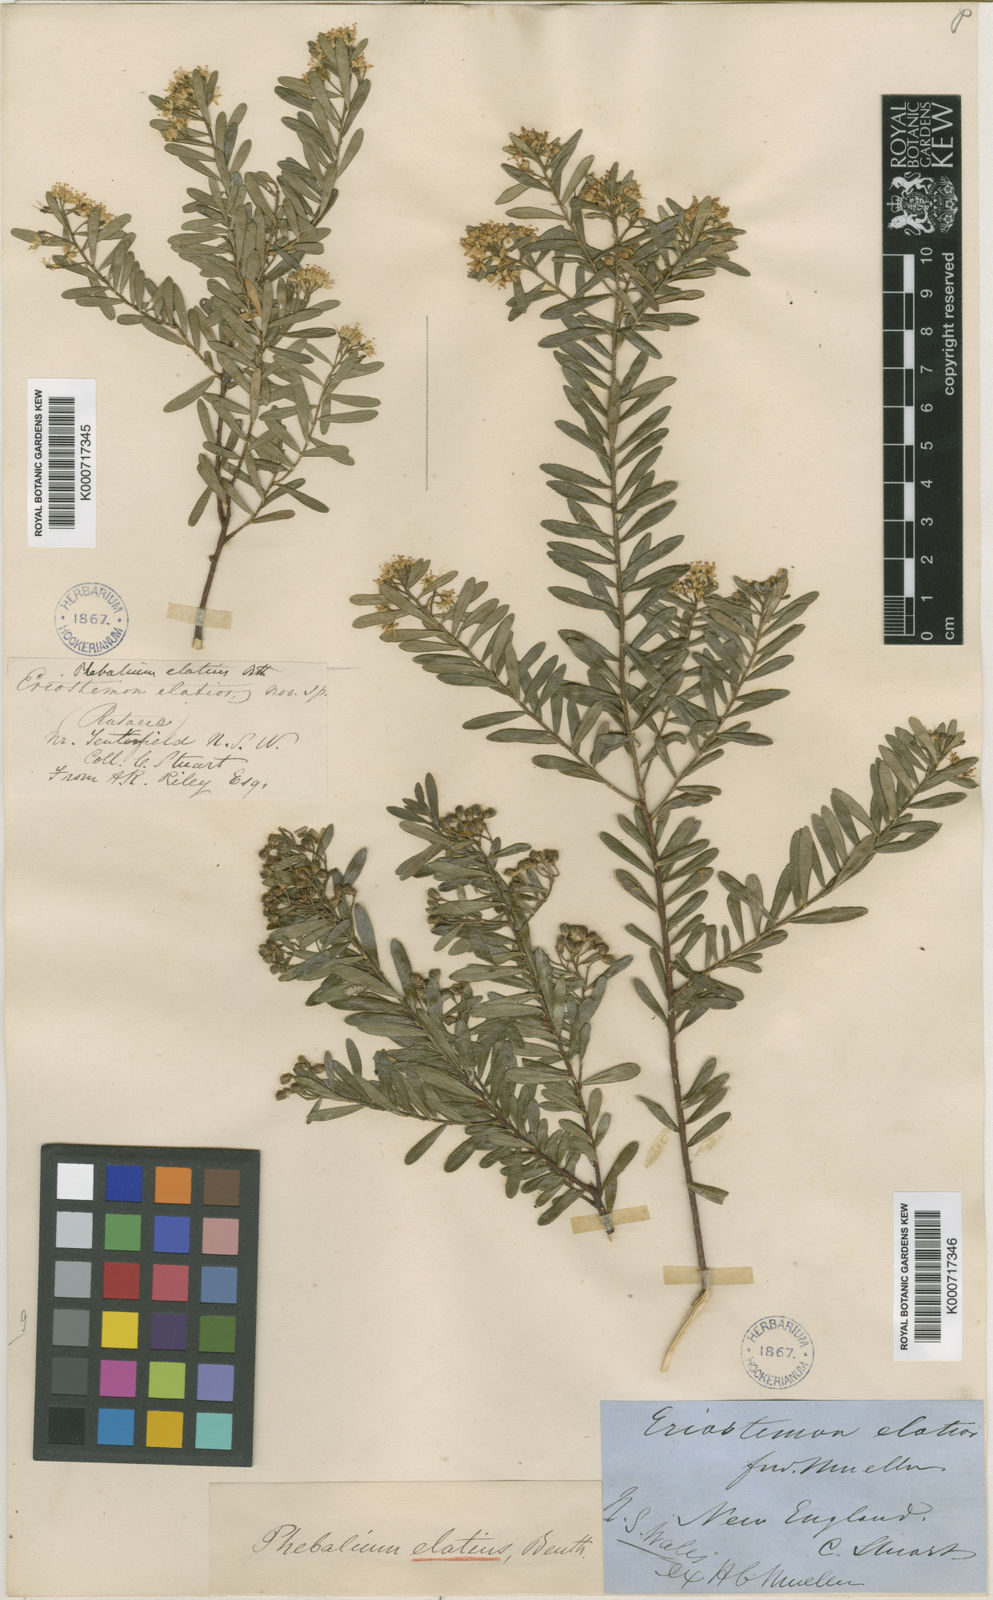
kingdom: Plantae
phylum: Tracheophyta
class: Magnoliopsida
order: Sapindales
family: Rutaceae
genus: Leionema
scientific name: Leionema elatius
